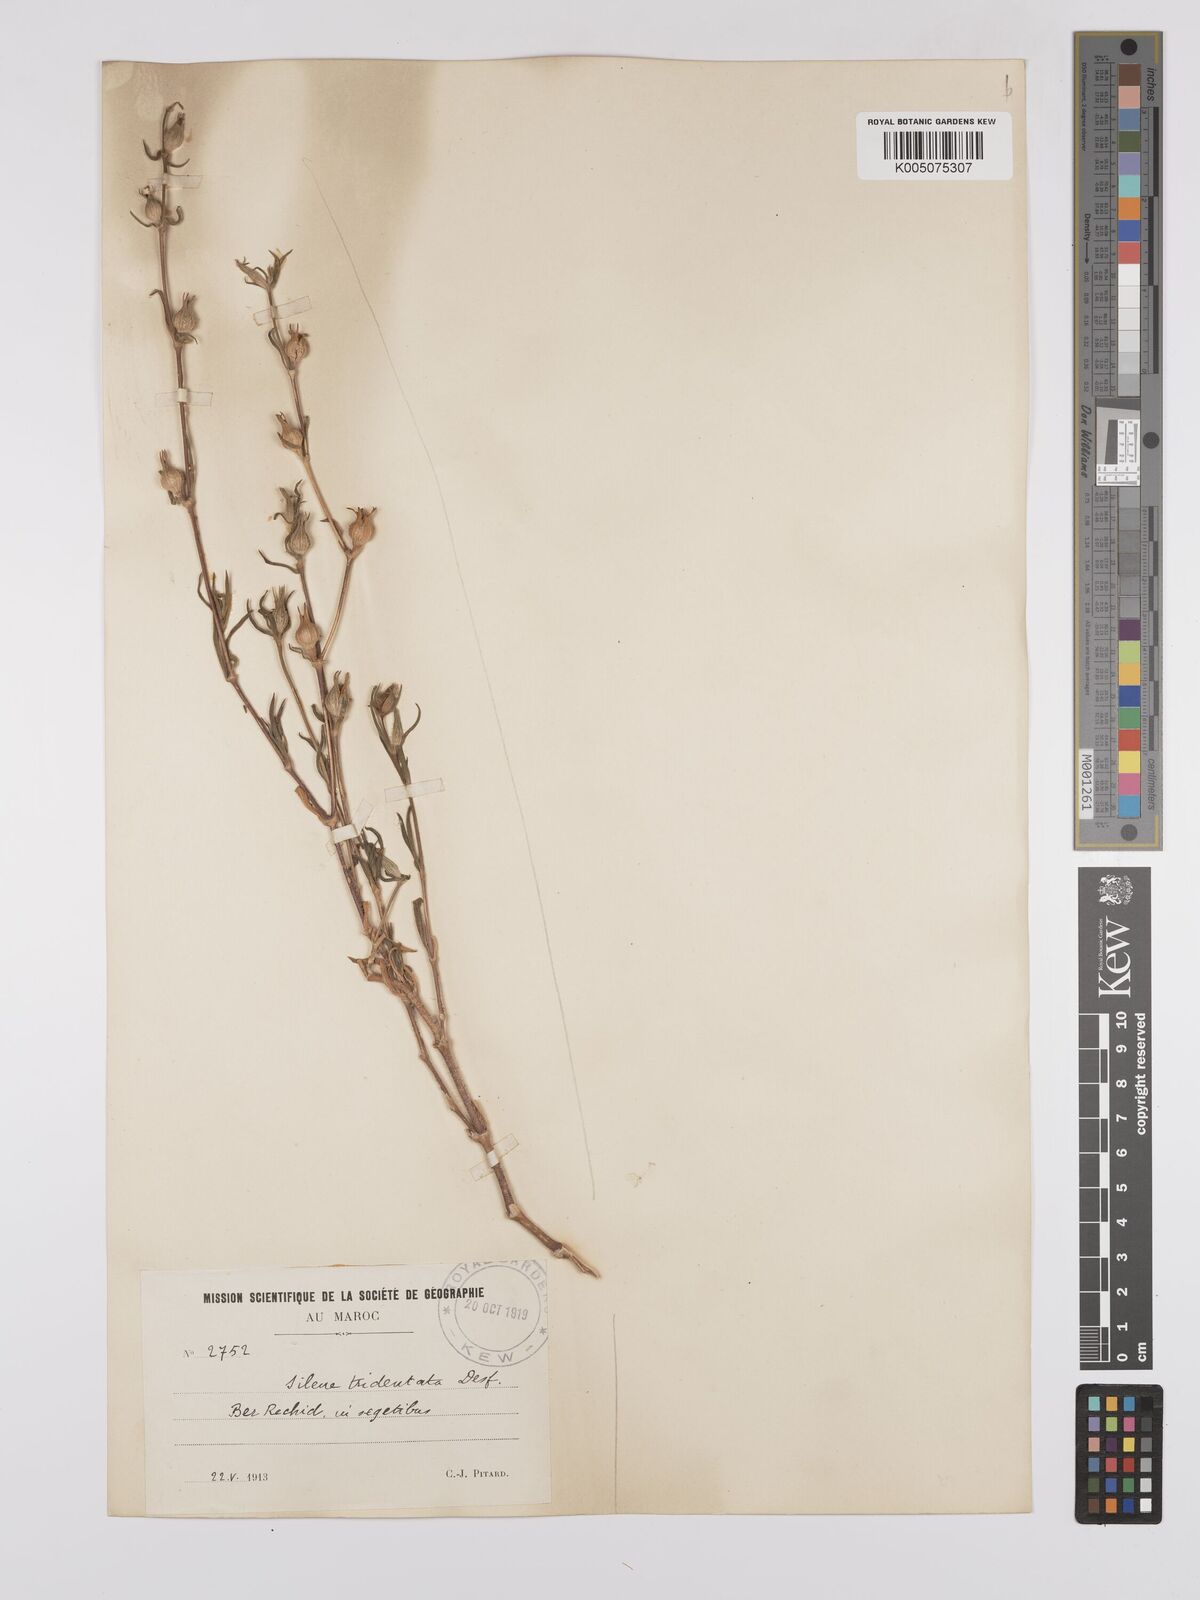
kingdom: Plantae
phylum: Tracheophyta
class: Magnoliopsida
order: Caryophyllales
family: Caryophyllaceae
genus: Silene
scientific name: Silene tridentata
